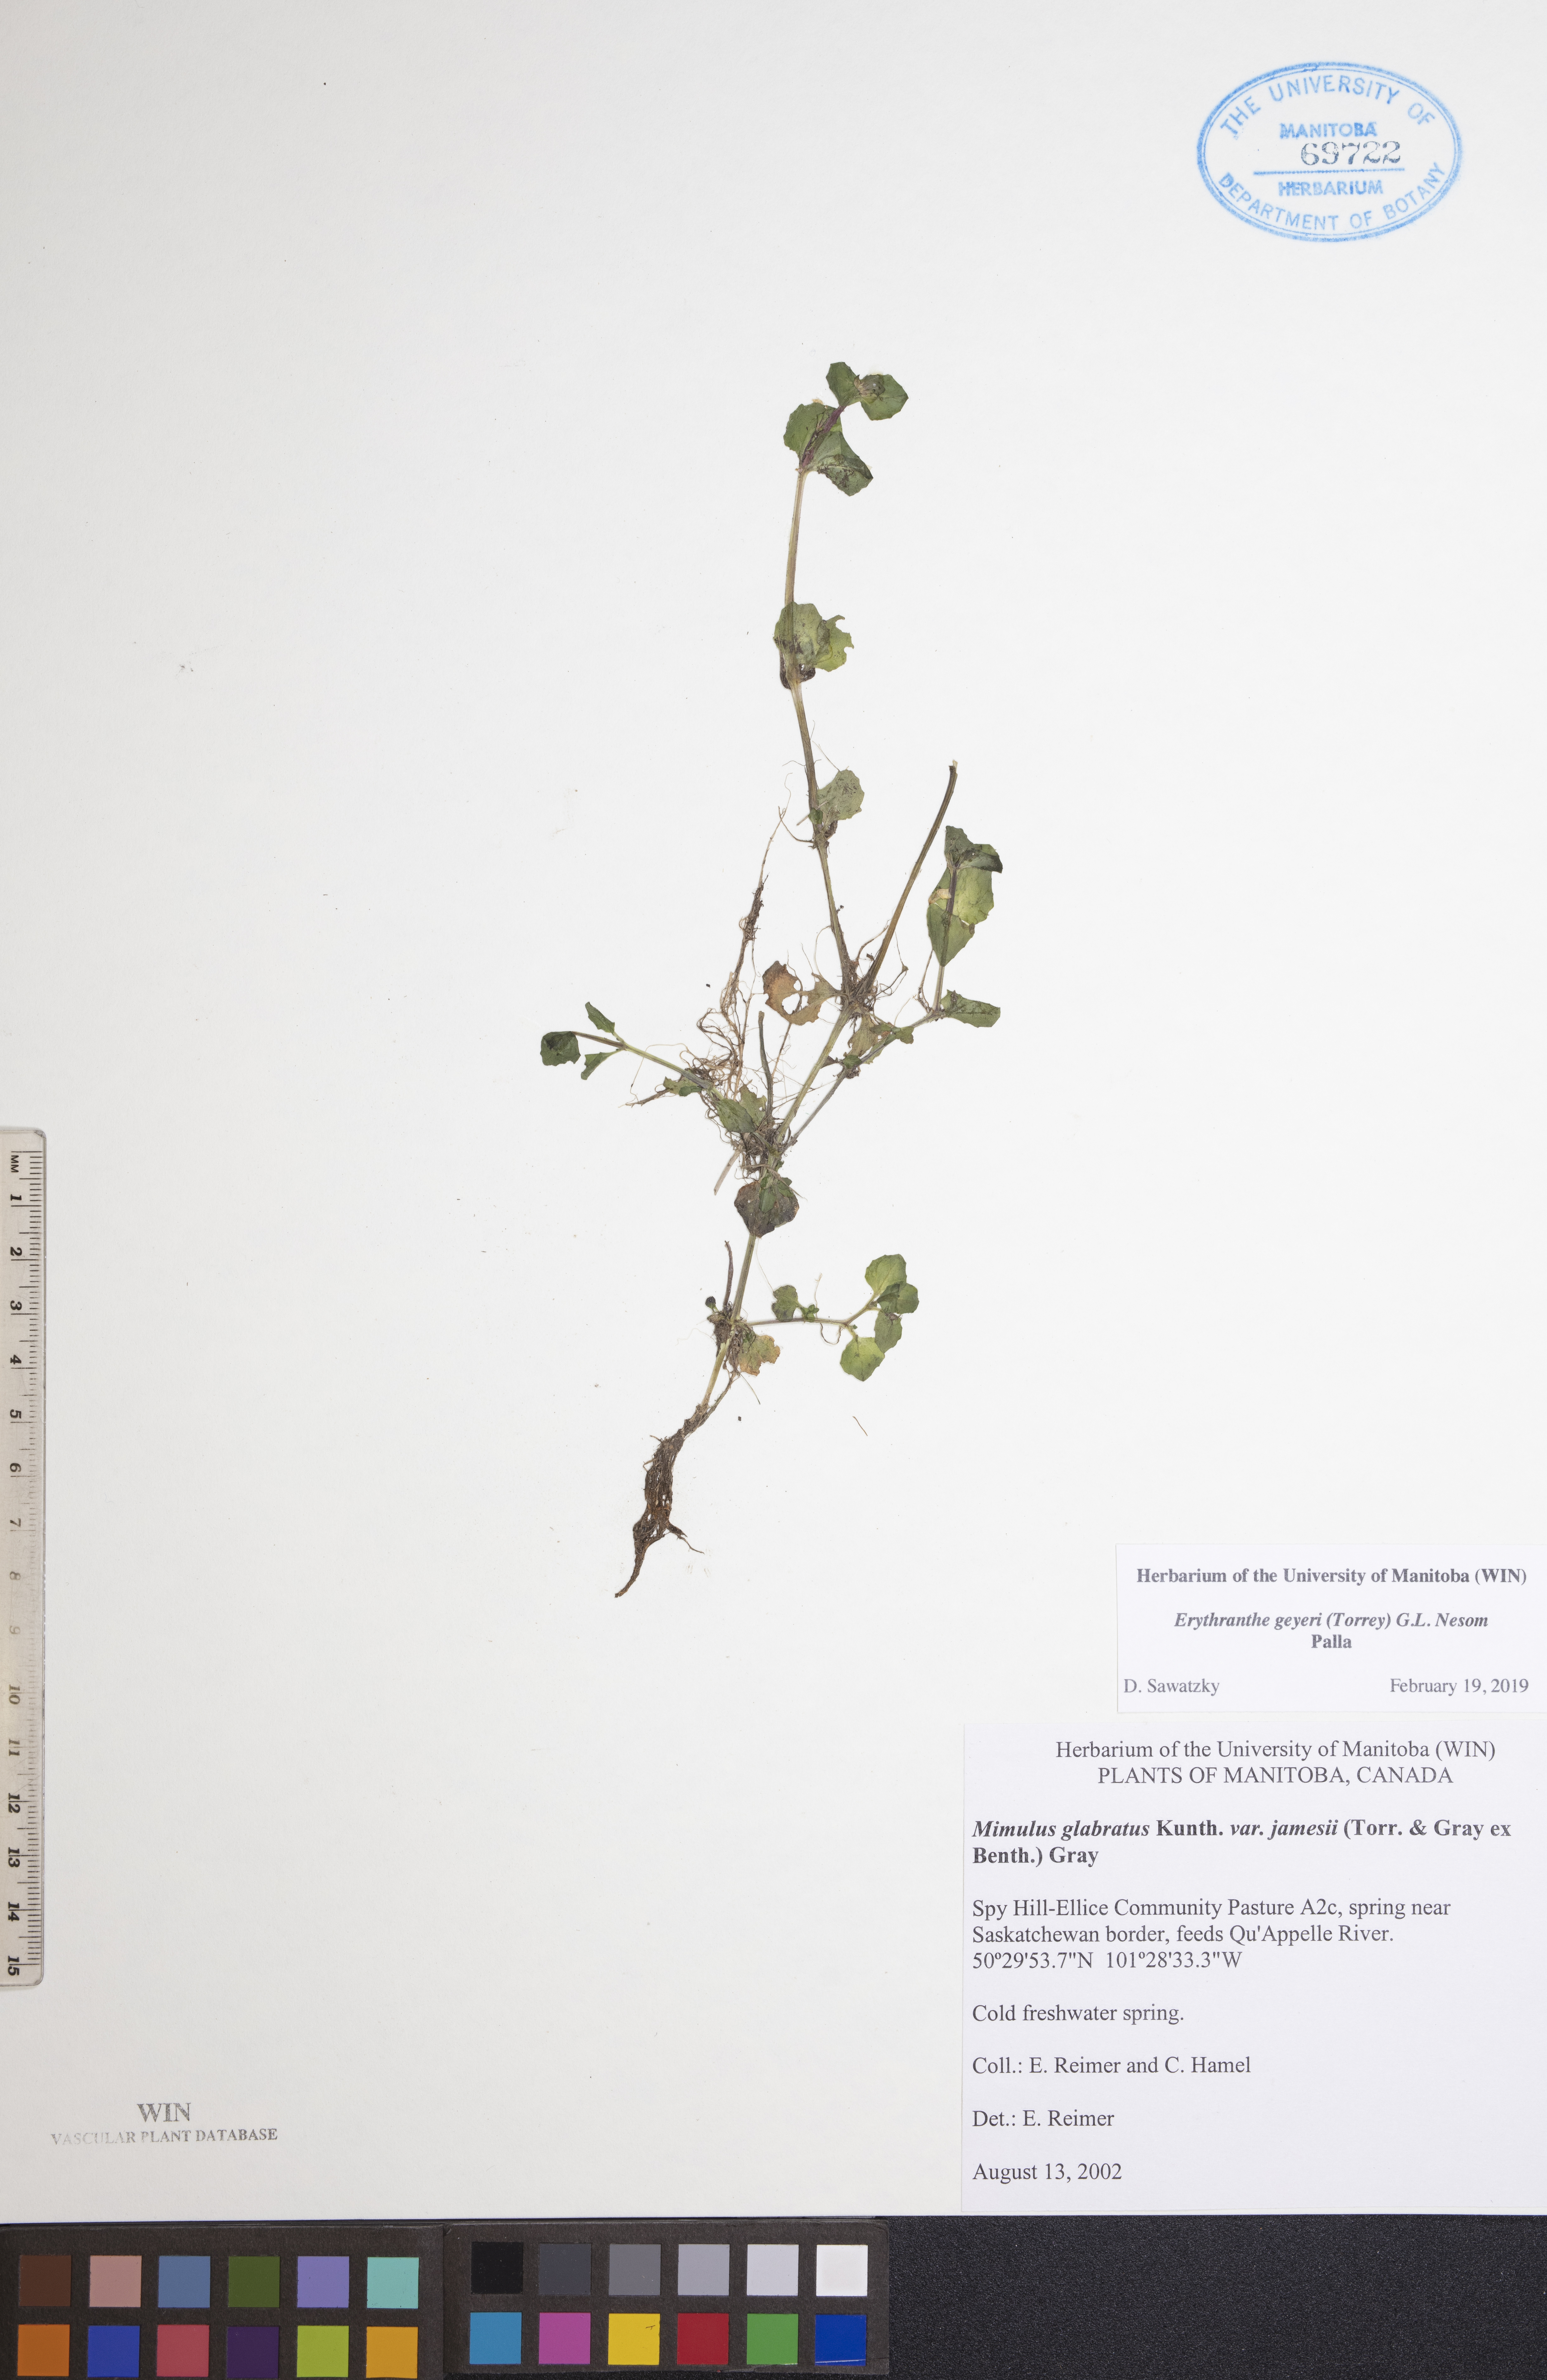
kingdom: Plantae
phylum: Tracheophyta
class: Magnoliopsida
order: Lamiales
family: Phrymaceae
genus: Erythranthe
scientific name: Erythranthe geyeri
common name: Geyer's monkeyflower
